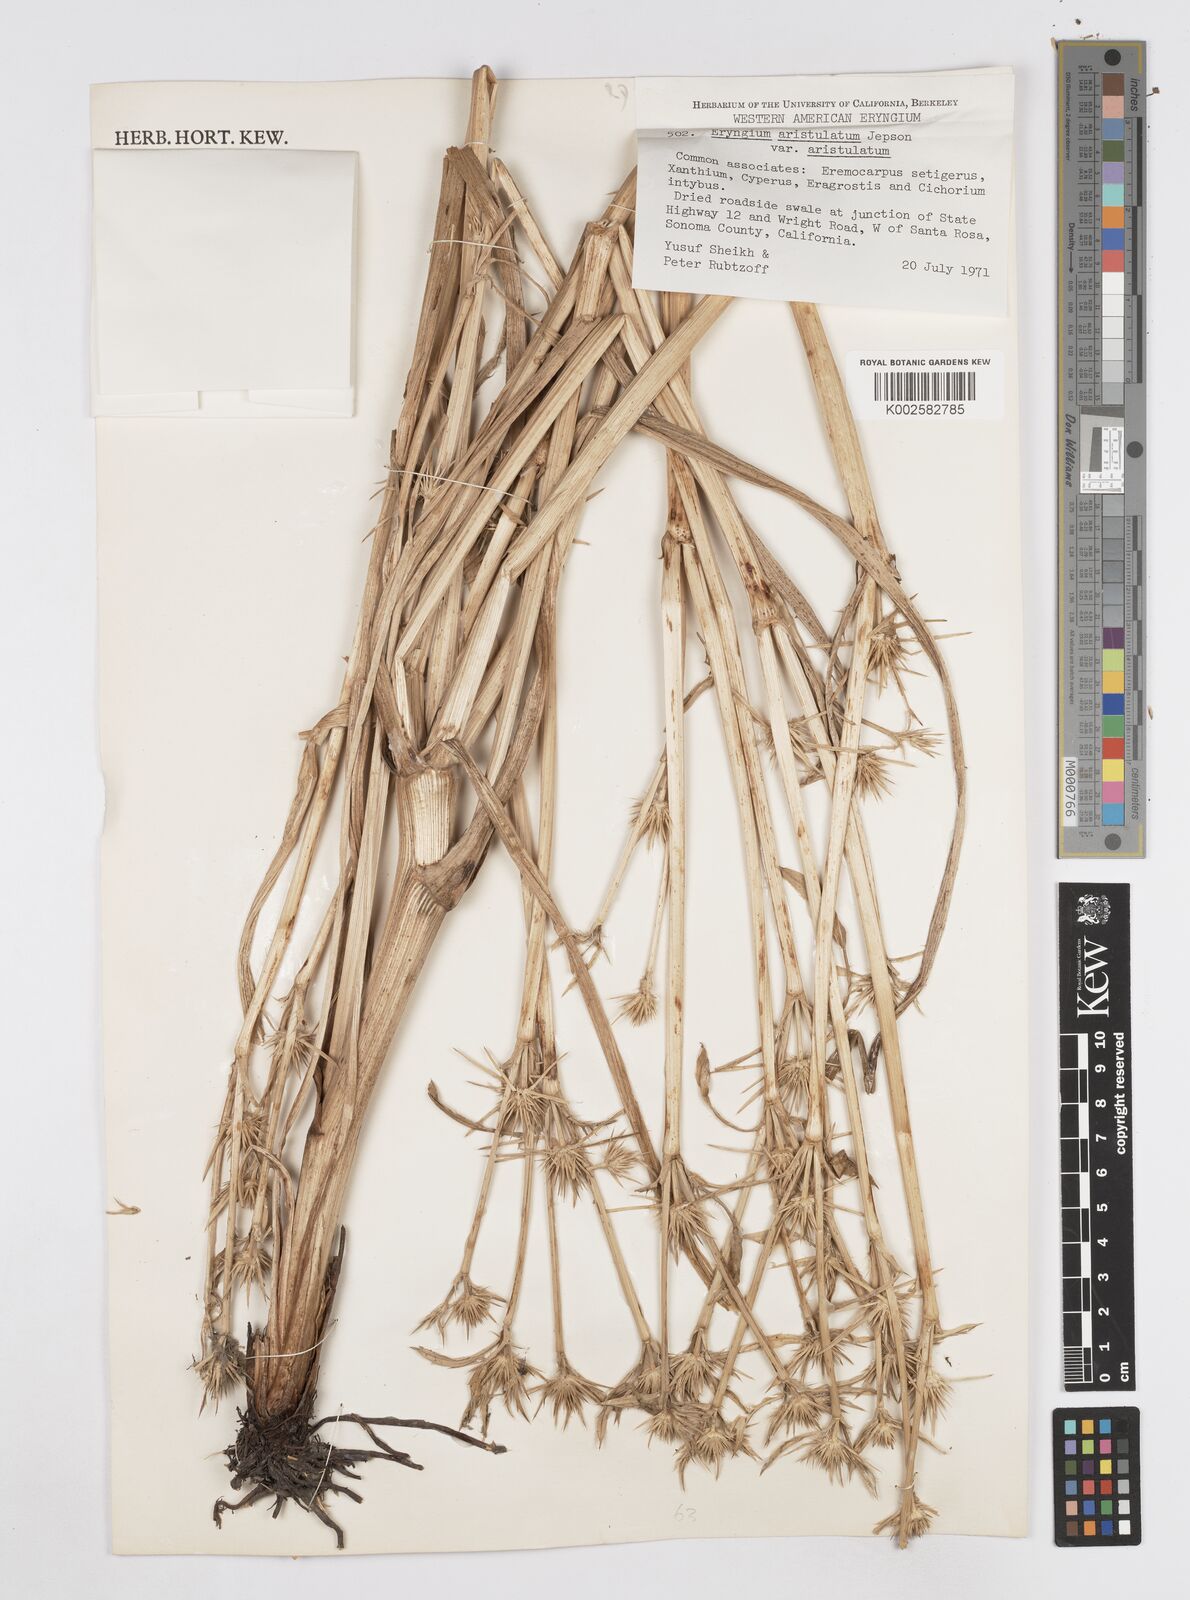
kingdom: Plantae
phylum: Tracheophyta
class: Magnoliopsida
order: Apiales
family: Apiaceae
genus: Eryngium
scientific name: Eryngium aristulatum
